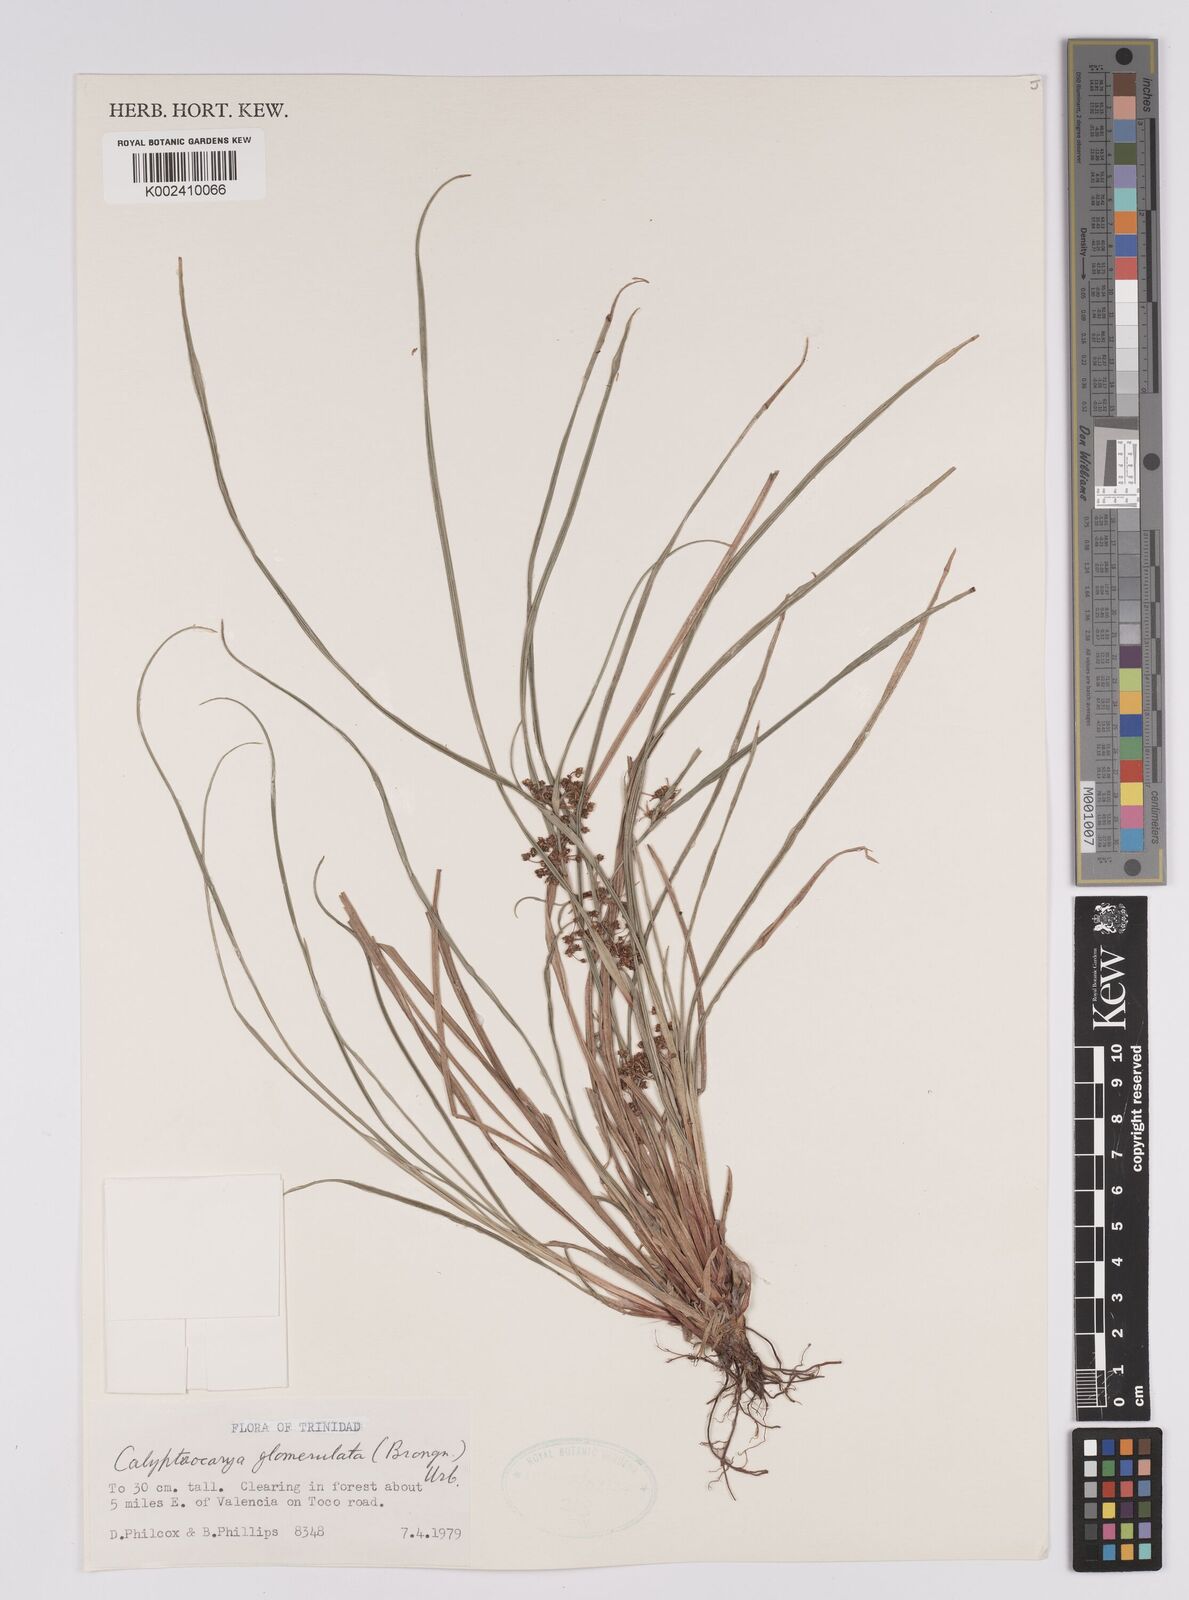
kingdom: Plantae
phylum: Tracheophyta
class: Liliopsida
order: Poales
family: Cyperaceae
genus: Calyptrocarya
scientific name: Calyptrocarya glomerulata
